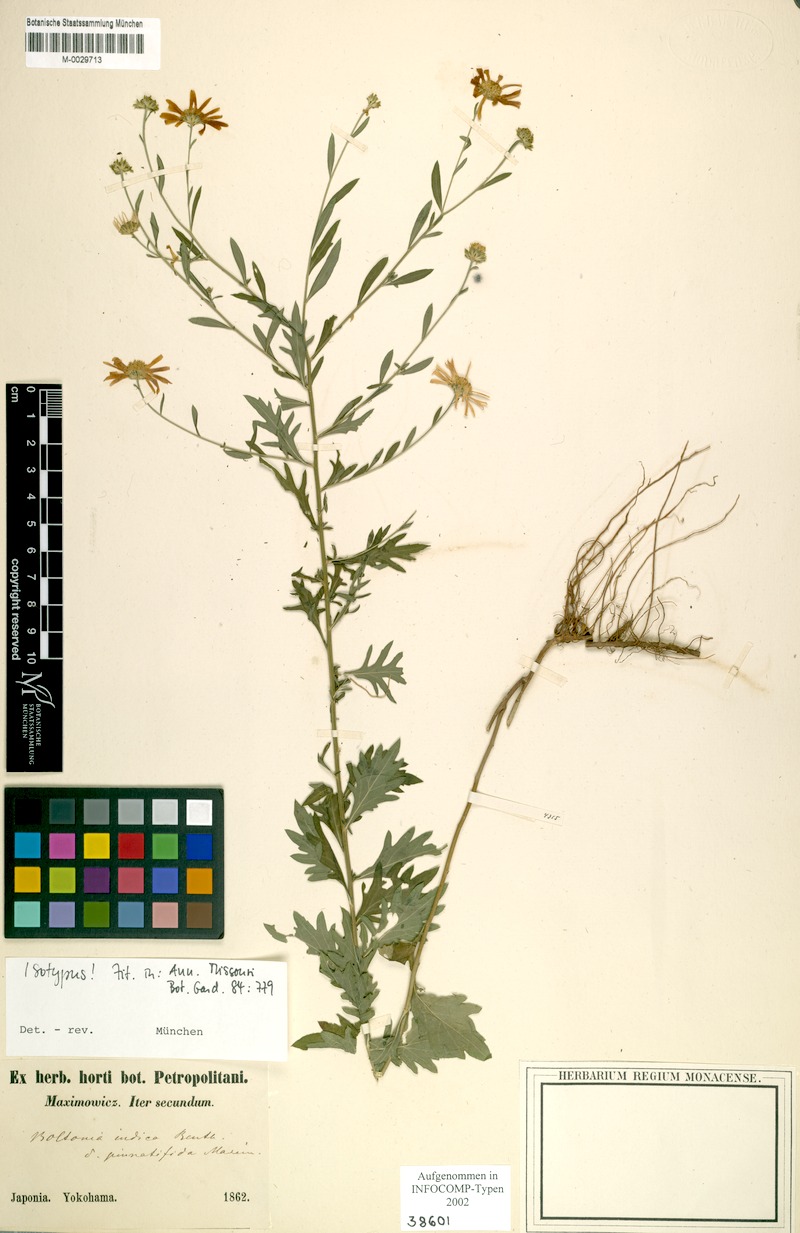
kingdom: Plantae
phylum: Tracheophyta
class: Magnoliopsida
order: Asterales
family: Asteraceae
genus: Kalimeris
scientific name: Kalimeris pinnatifida
